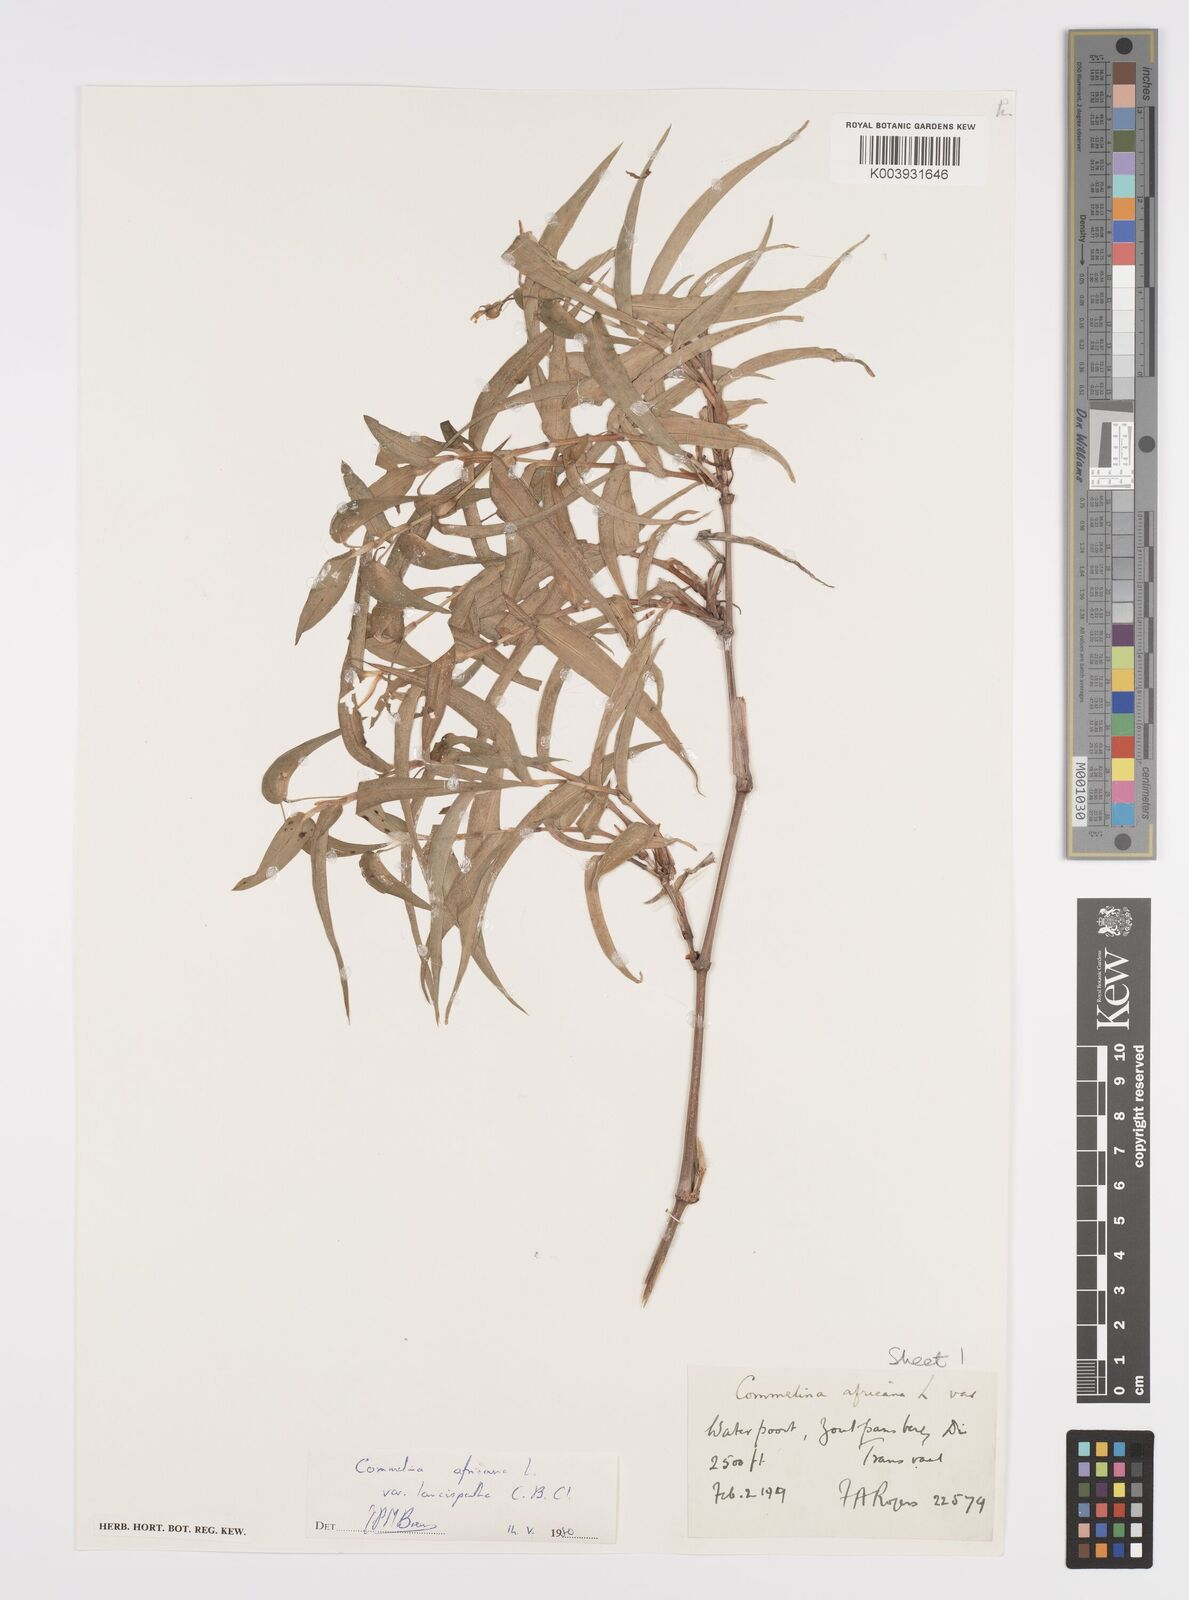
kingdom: Plantae
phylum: Tracheophyta
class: Liliopsida
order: Commelinales
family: Commelinaceae
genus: Commelina
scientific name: Commelina africana
